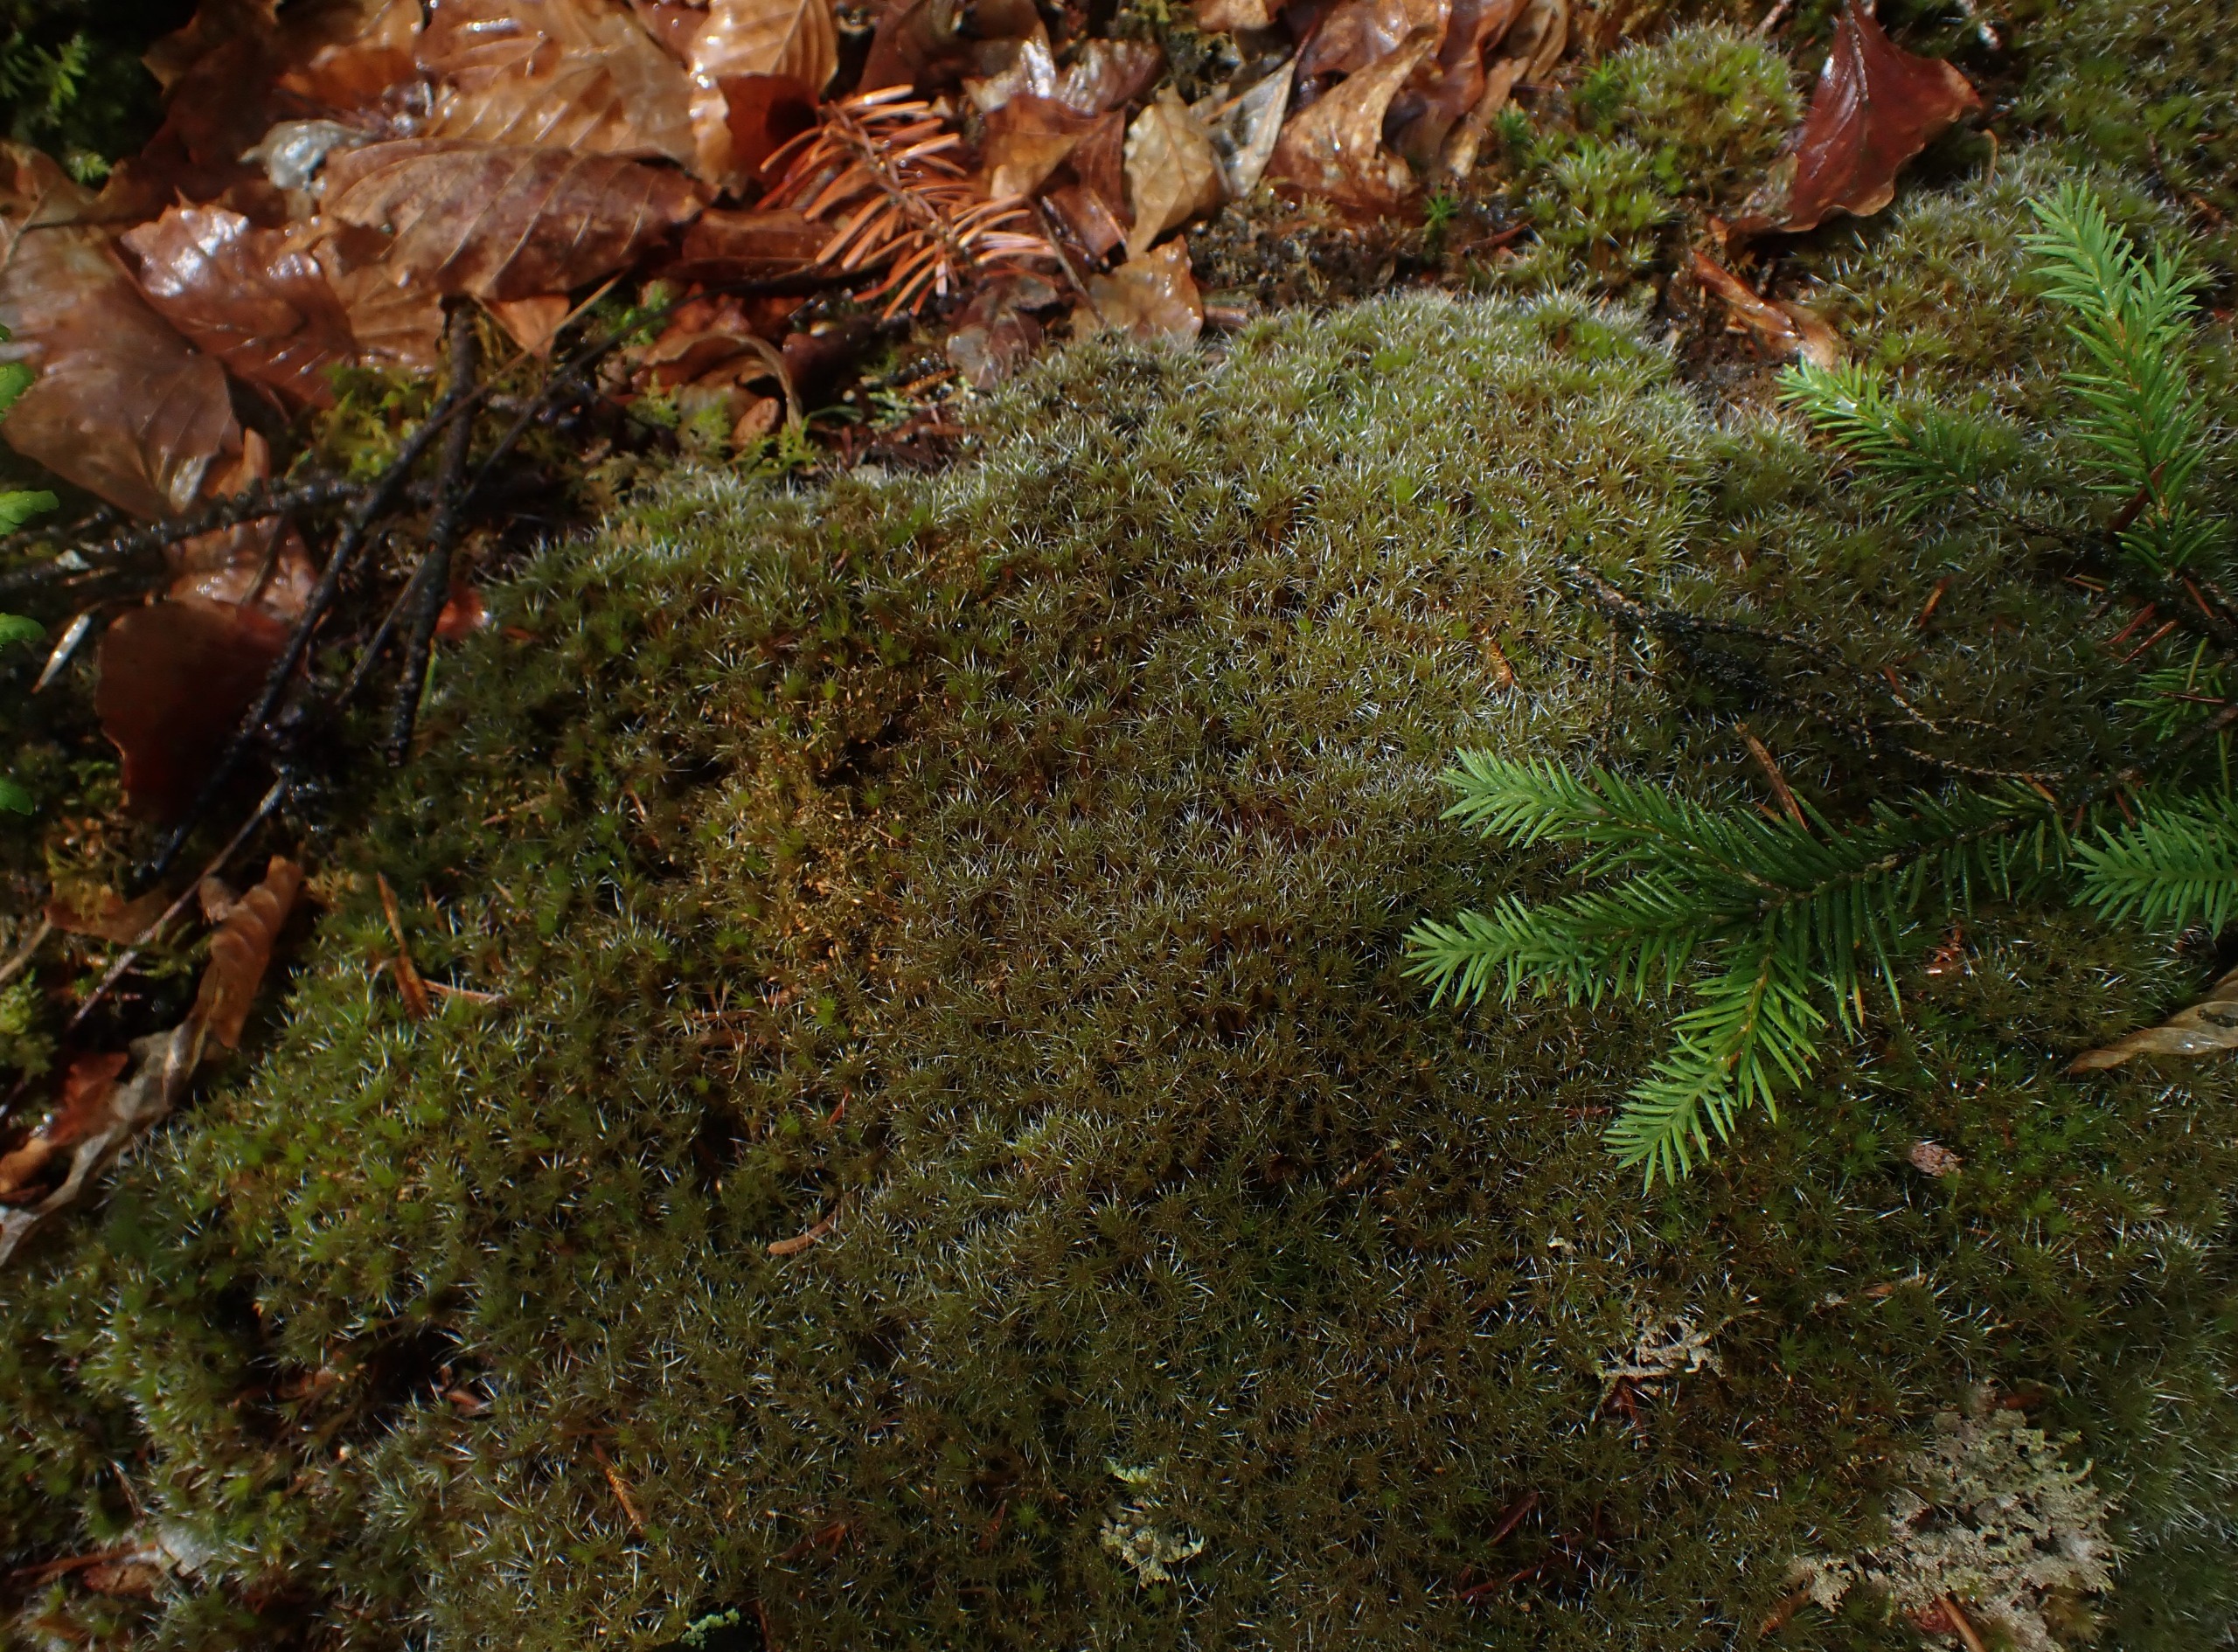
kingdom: Plantae
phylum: Bryophyta
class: Bryopsida
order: Dicranales
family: Leucobryaceae
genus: Campylopus
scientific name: Campylopus introflexus
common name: Stjerne-bredribbe
